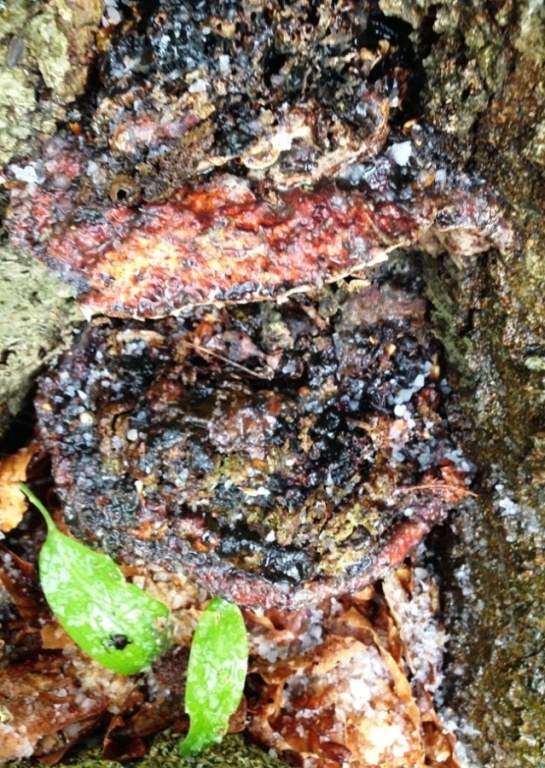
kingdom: Fungi
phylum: Basidiomycota
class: Agaricomycetes
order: Polyporales
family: Polyporaceae
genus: Vanderbylia
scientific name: Vanderbylia fraxinea
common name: stor kanelporesvamp
